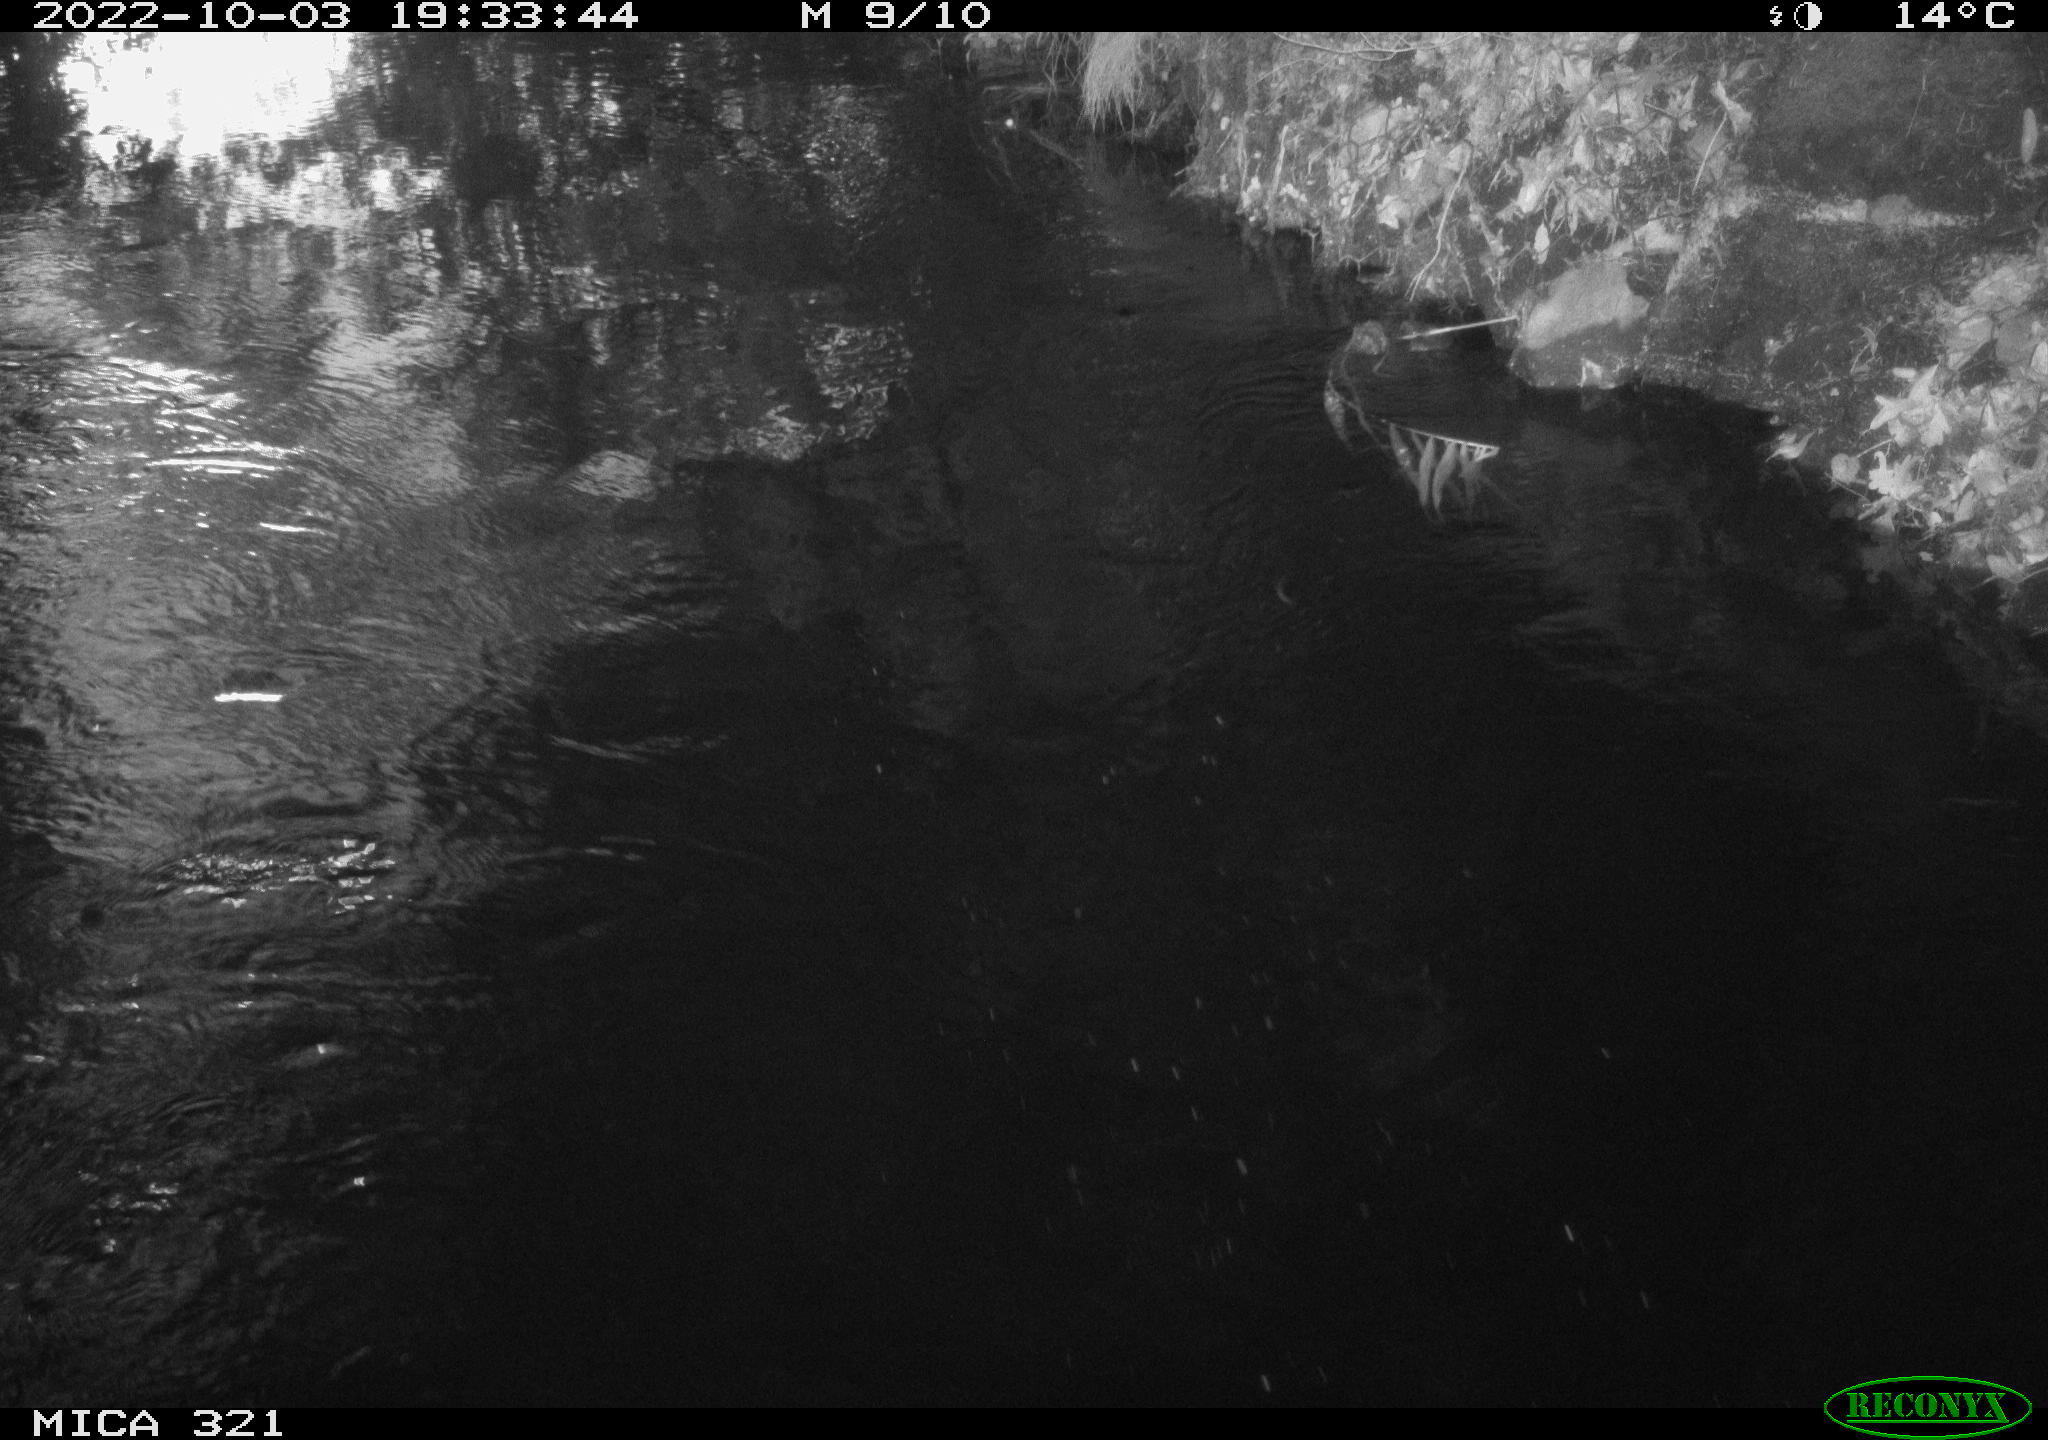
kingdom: Animalia
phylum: Chordata
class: Aves
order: Anseriformes
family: Anatidae
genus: Anas
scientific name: Anas
